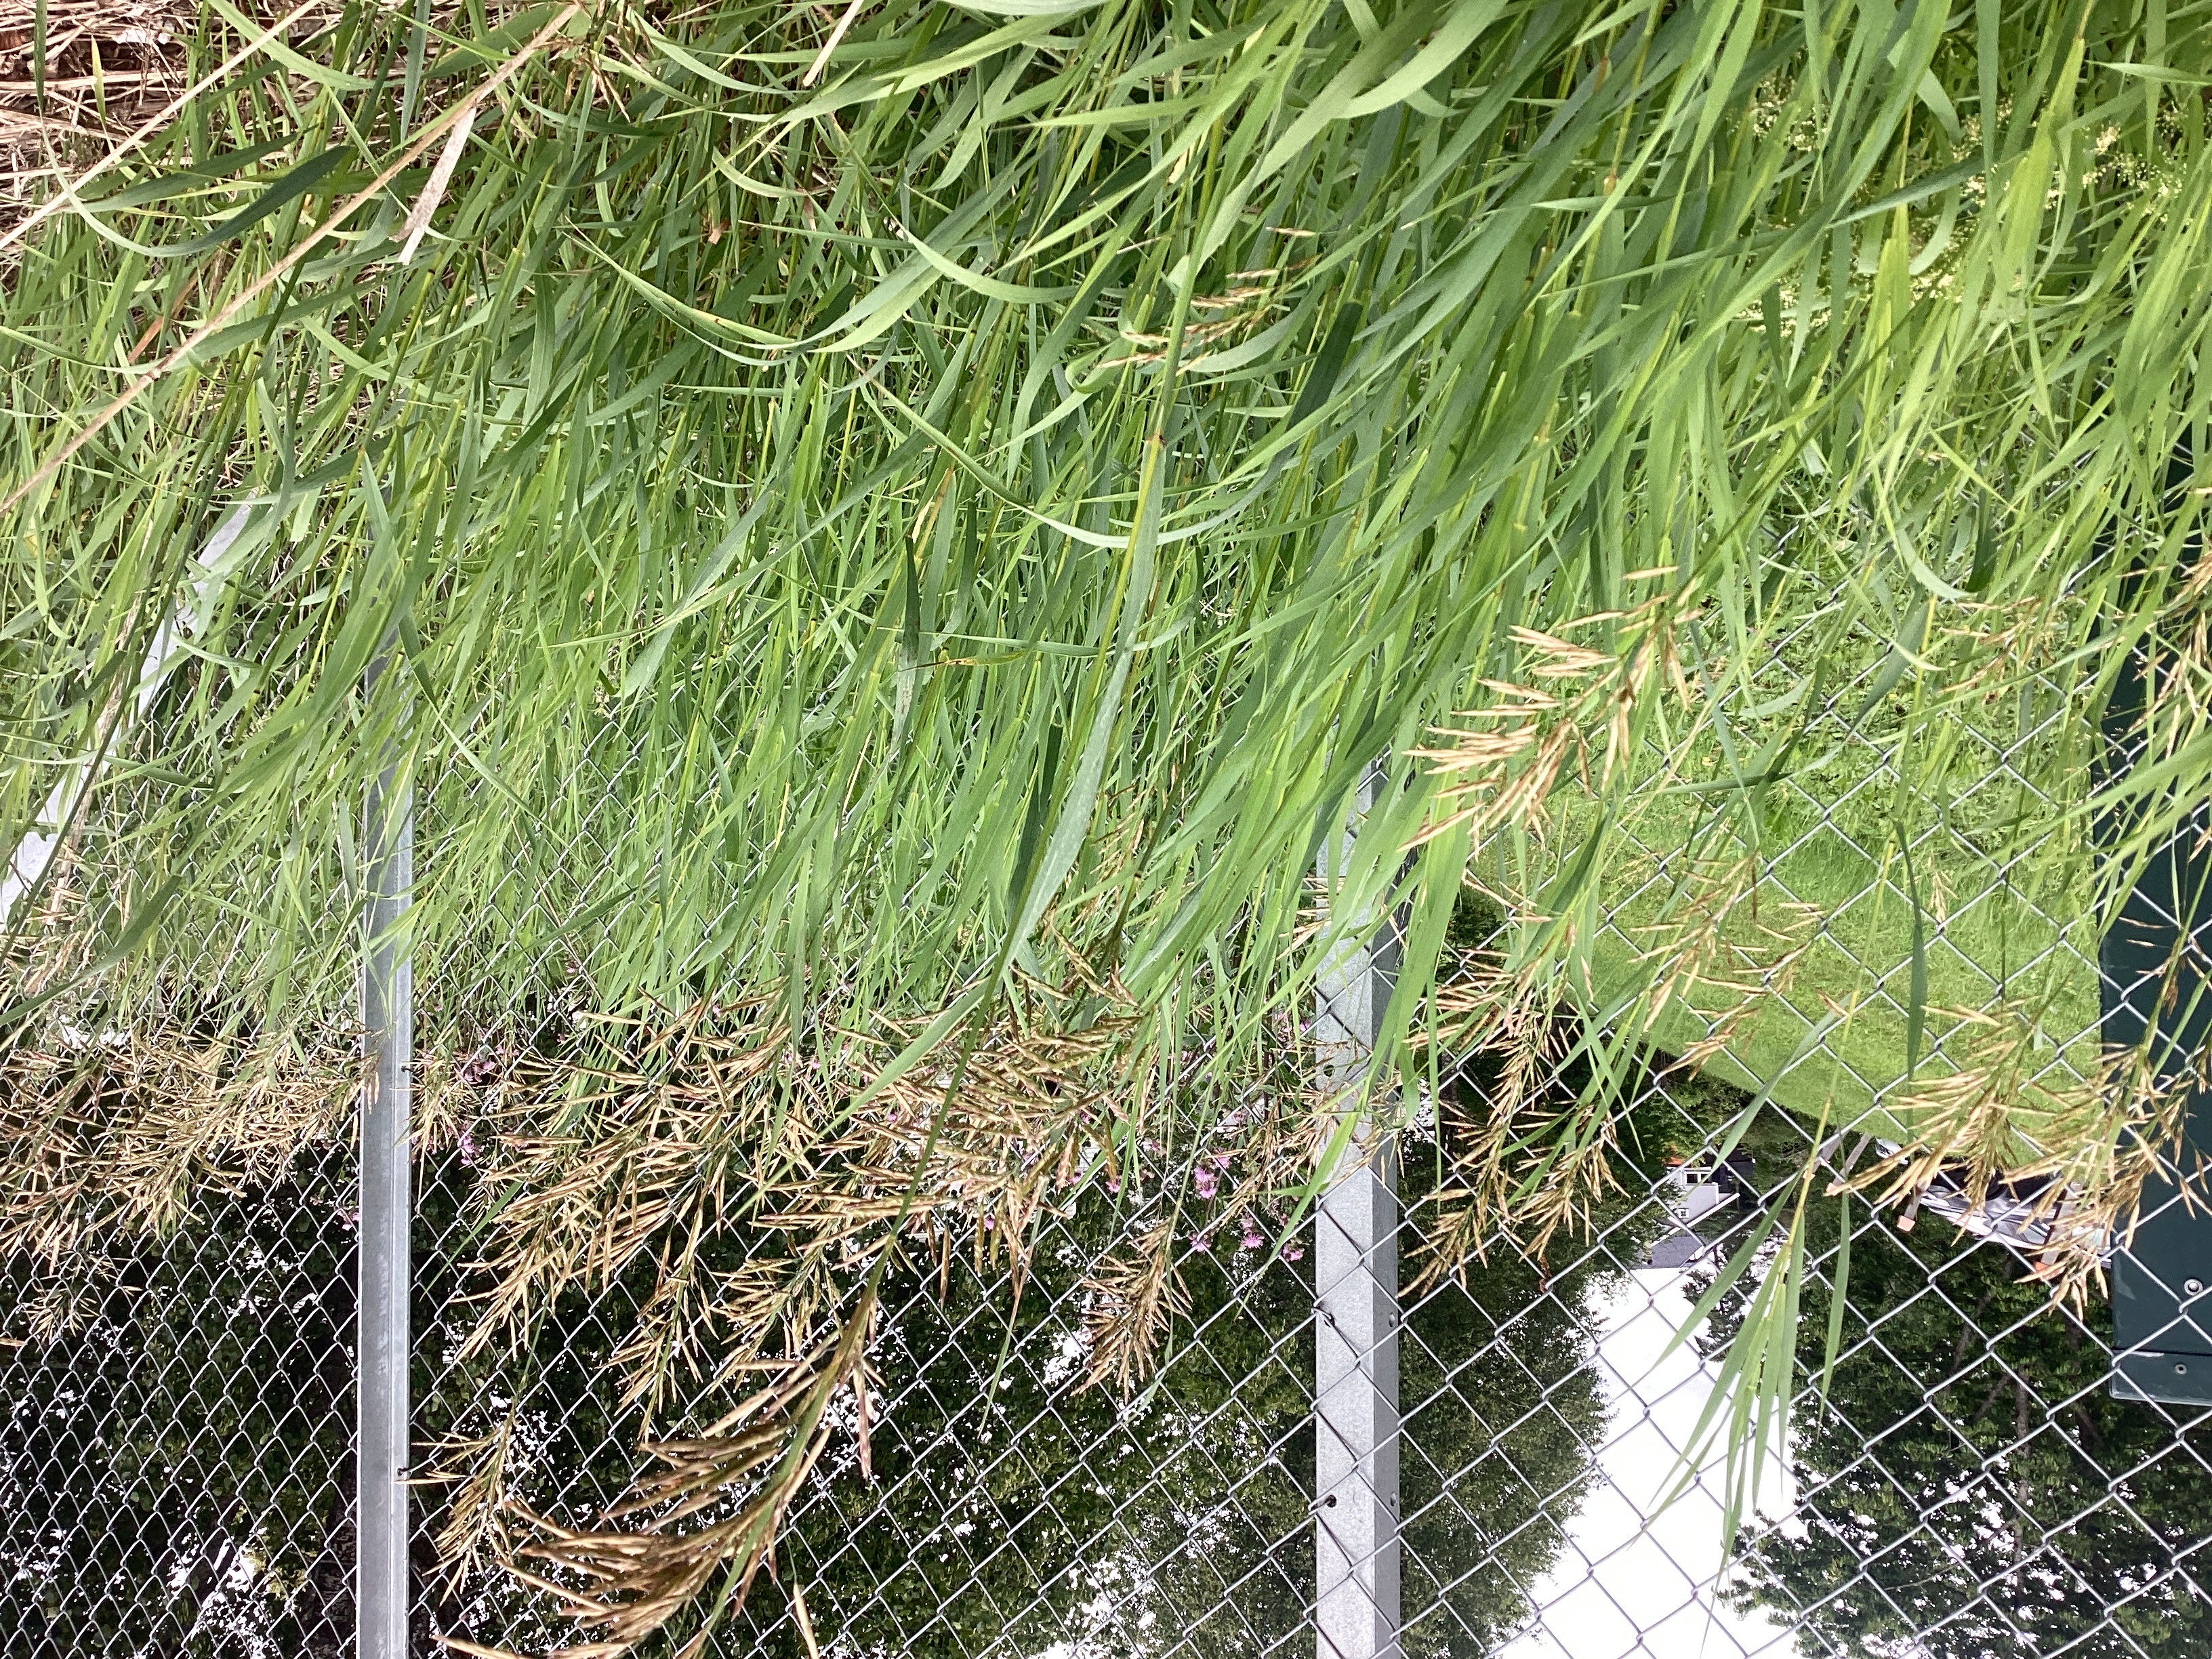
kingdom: Plantae
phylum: Tracheophyta
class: Liliopsida
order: Poales
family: Poaceae
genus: Bromus
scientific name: Bromus inermis
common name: bladfaks
